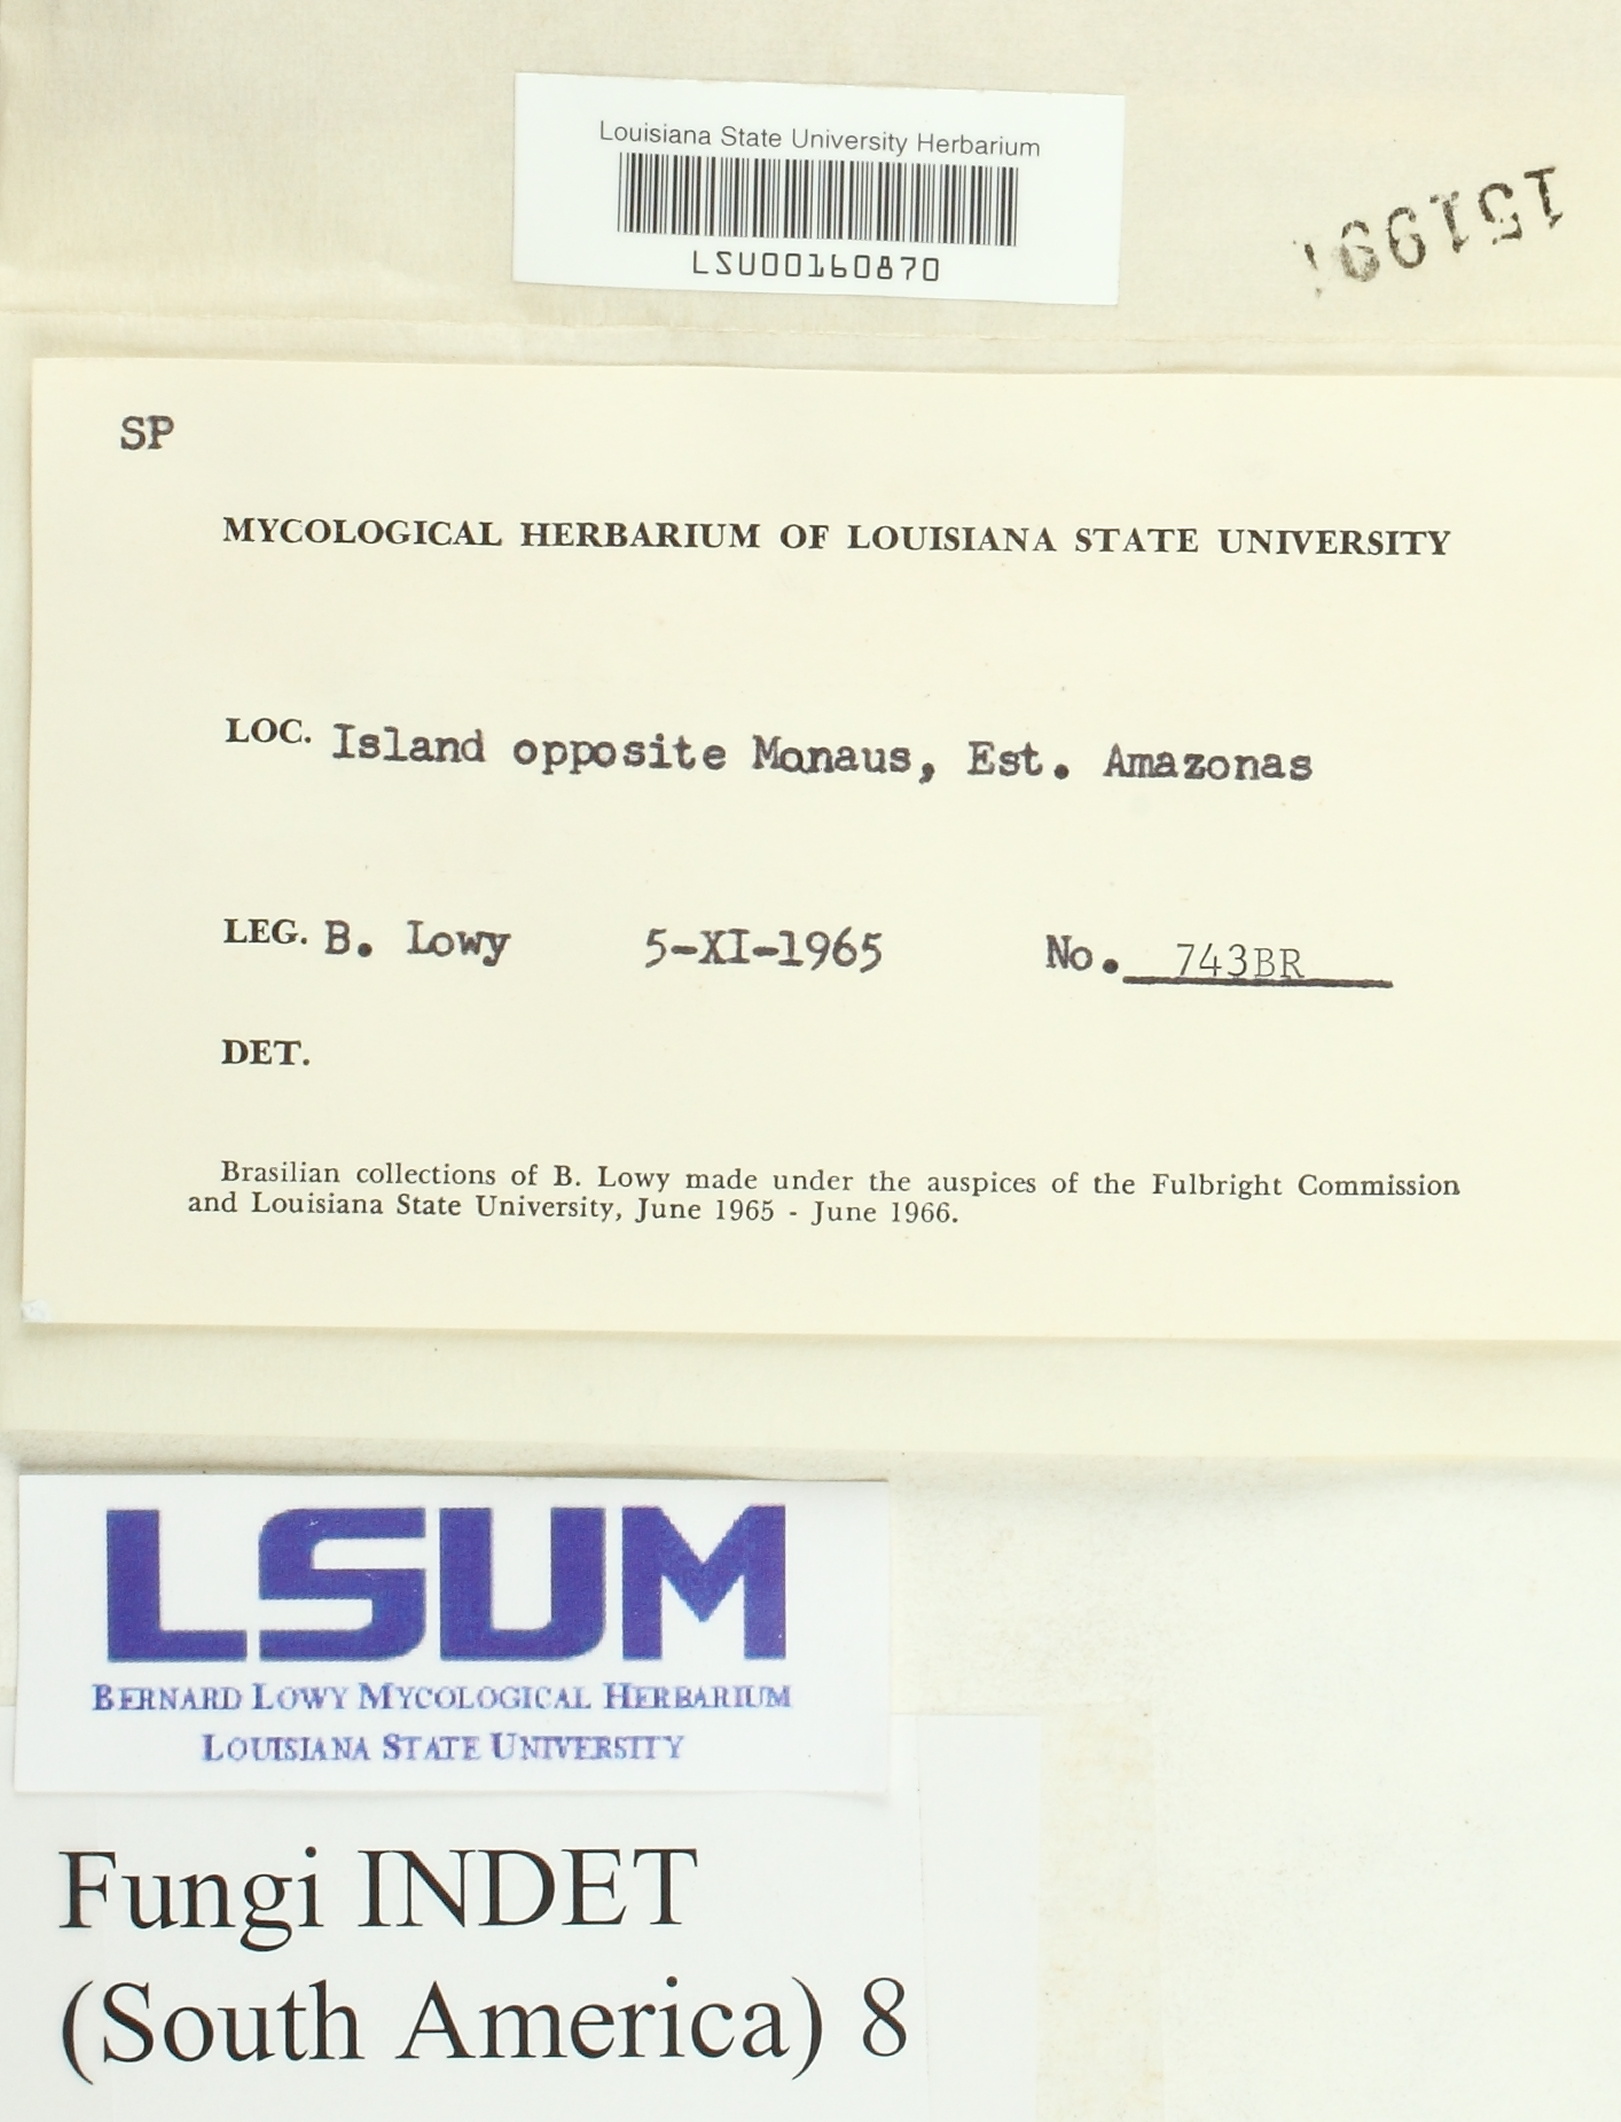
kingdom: Fungi
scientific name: Fungi
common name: Fungi
